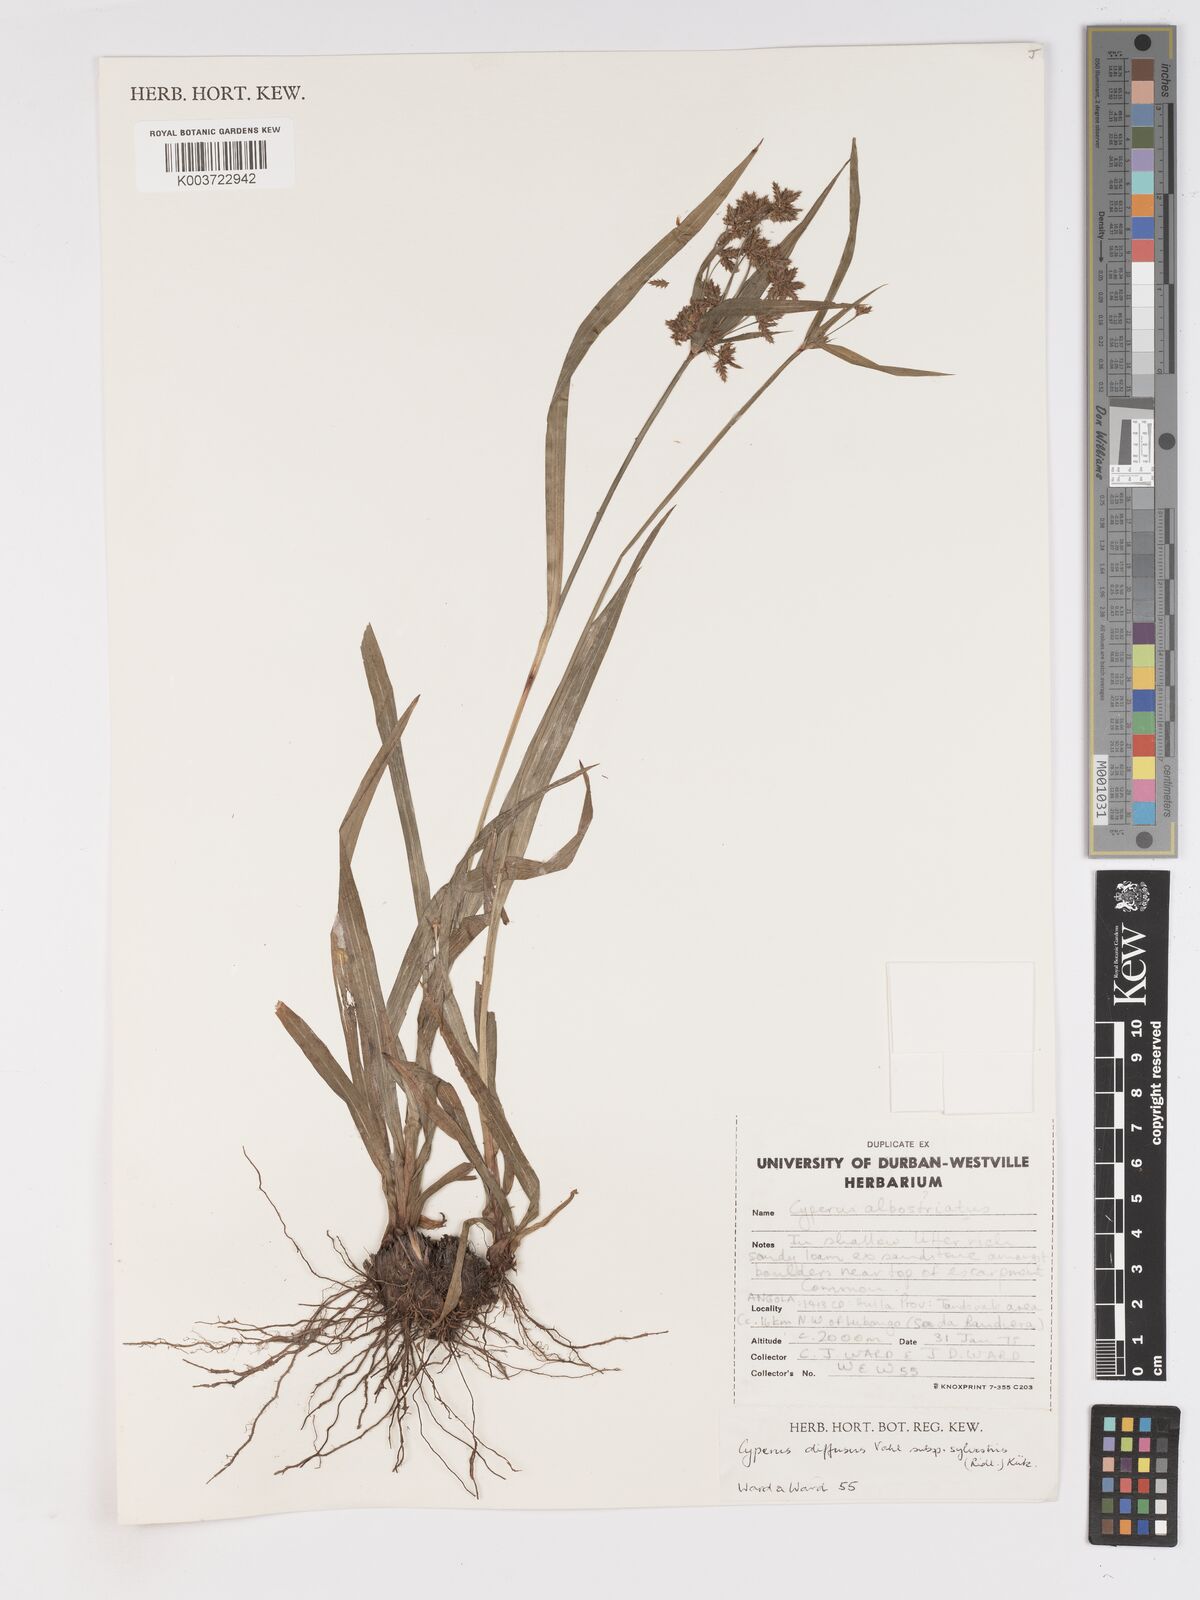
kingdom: Plantae
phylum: Tracheophyta
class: Liliopsida
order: Poales
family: Cyperaceae
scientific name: Cyperaceae
